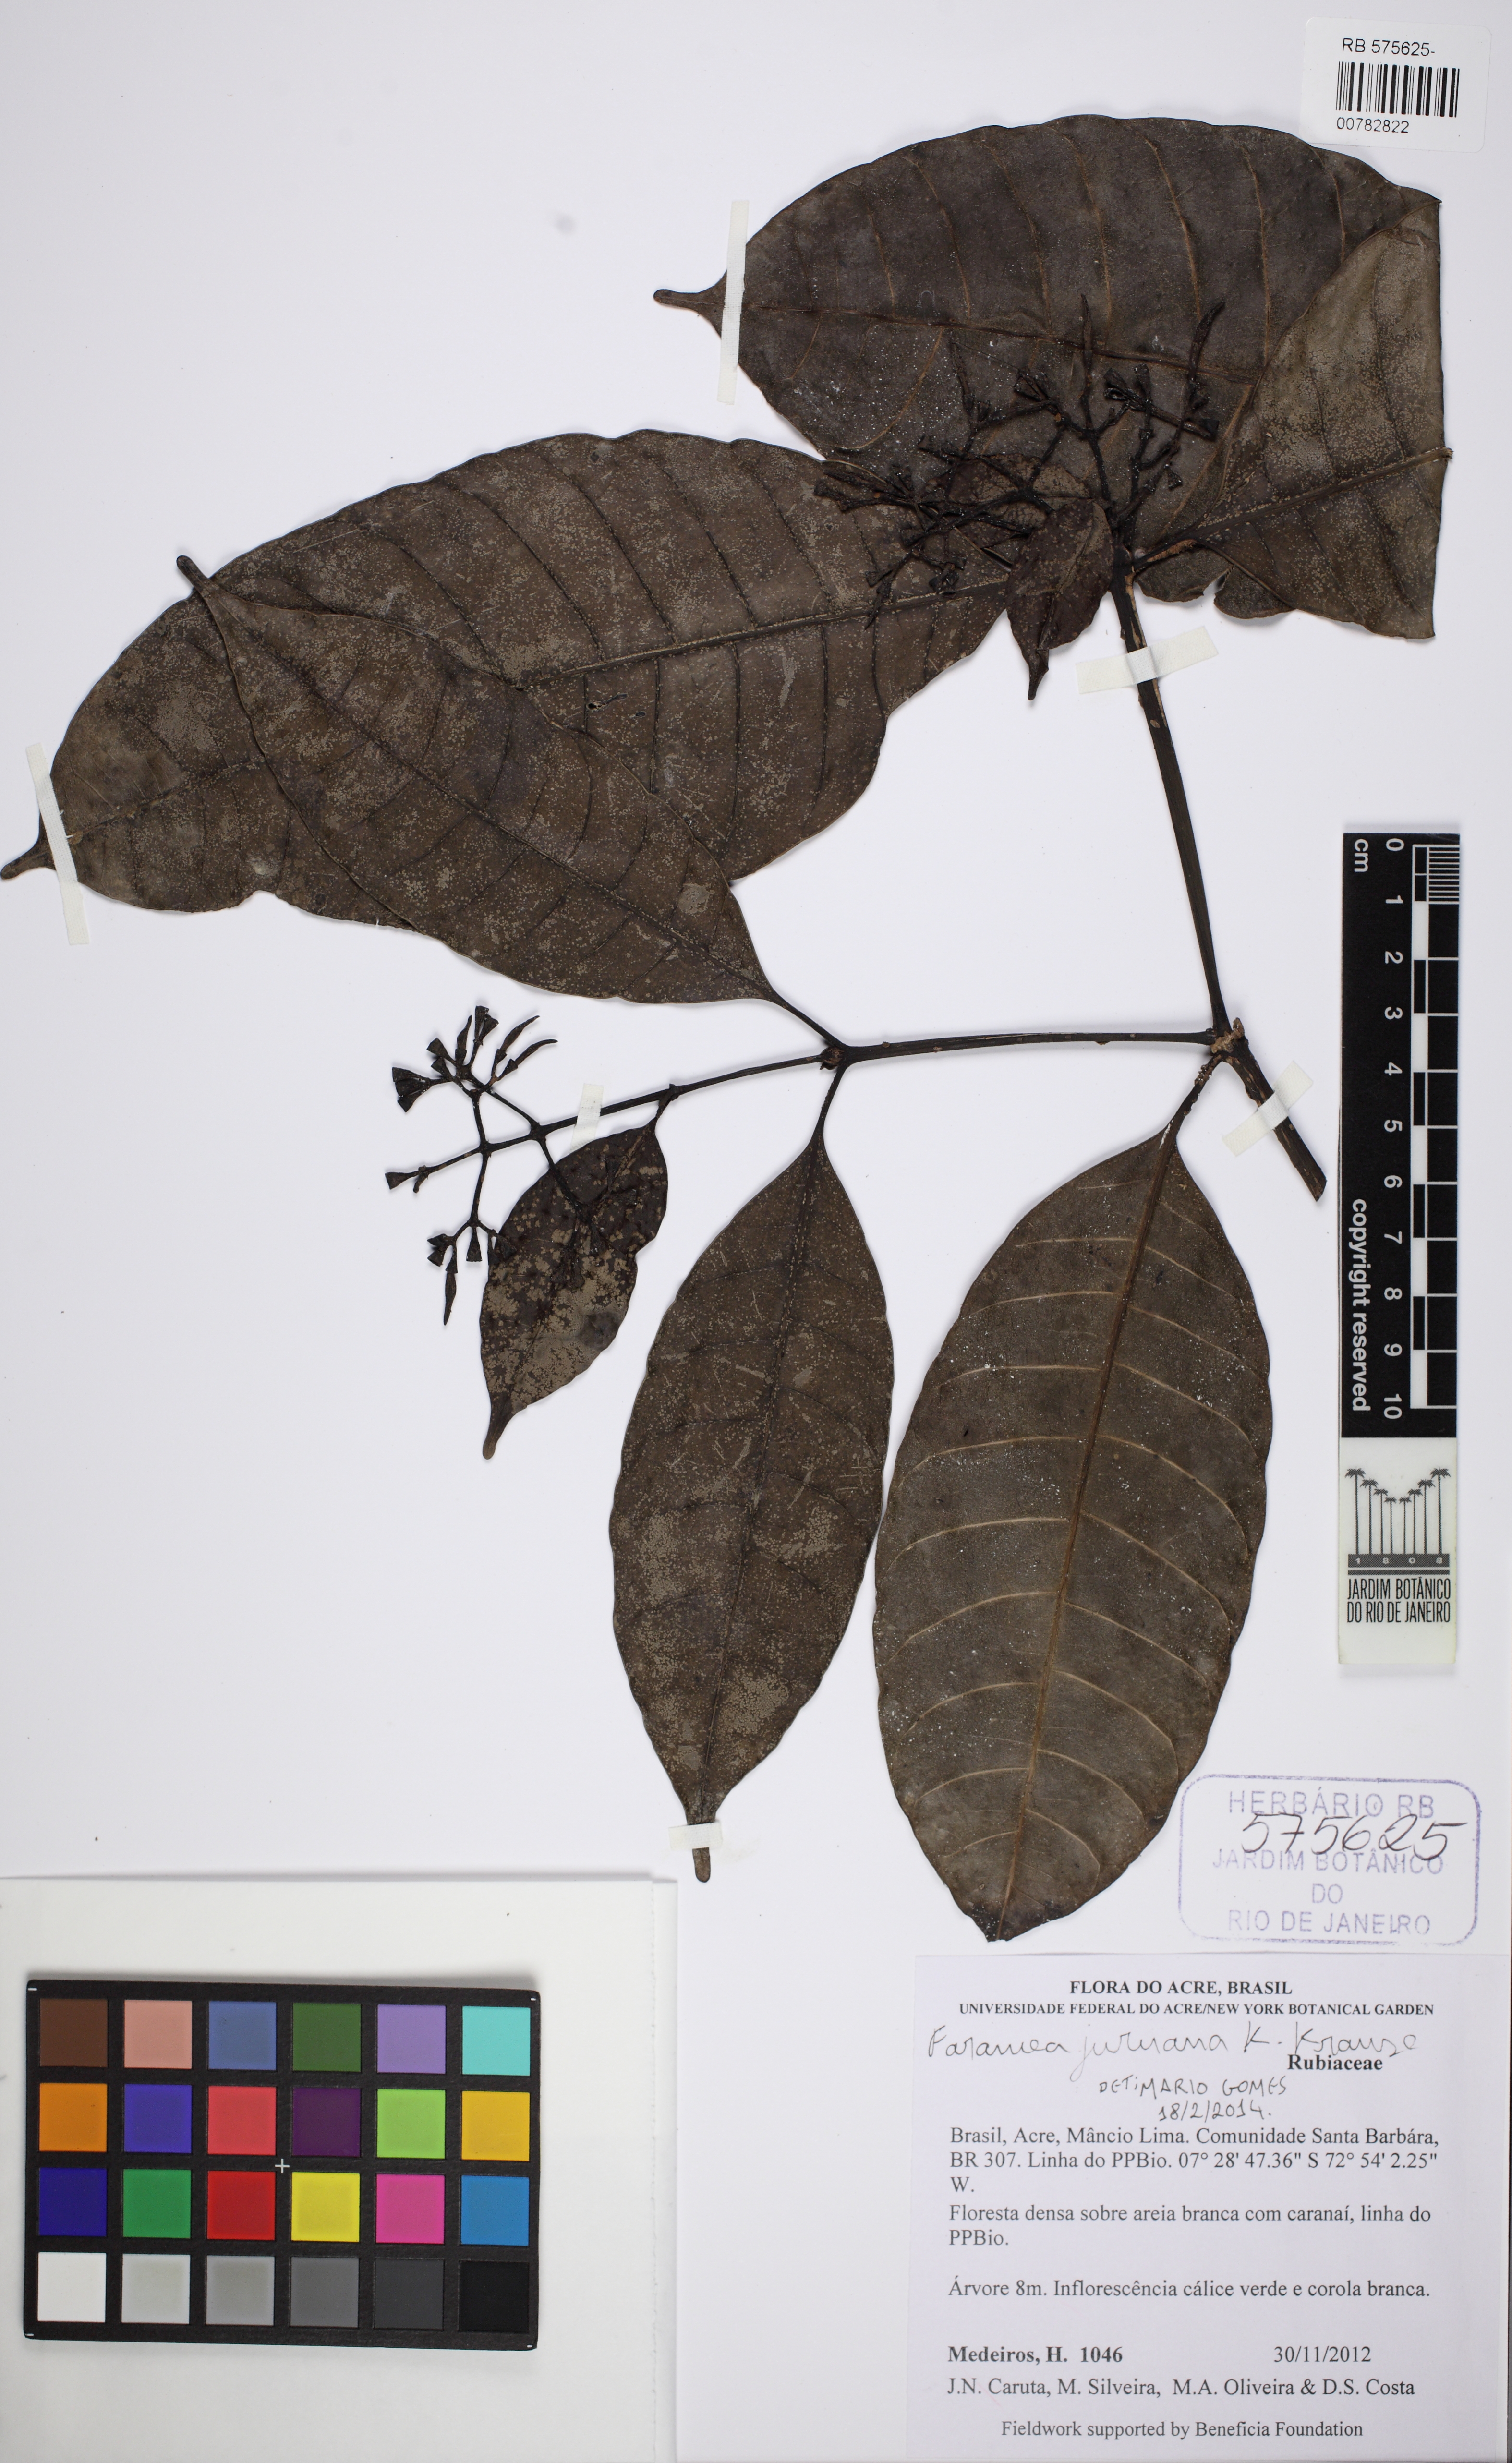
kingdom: Plantae
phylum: Tracheophyta
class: Magnoliopsida
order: Gentianales
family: Rubiaceae
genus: Faramea
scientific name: Faramea juruana
